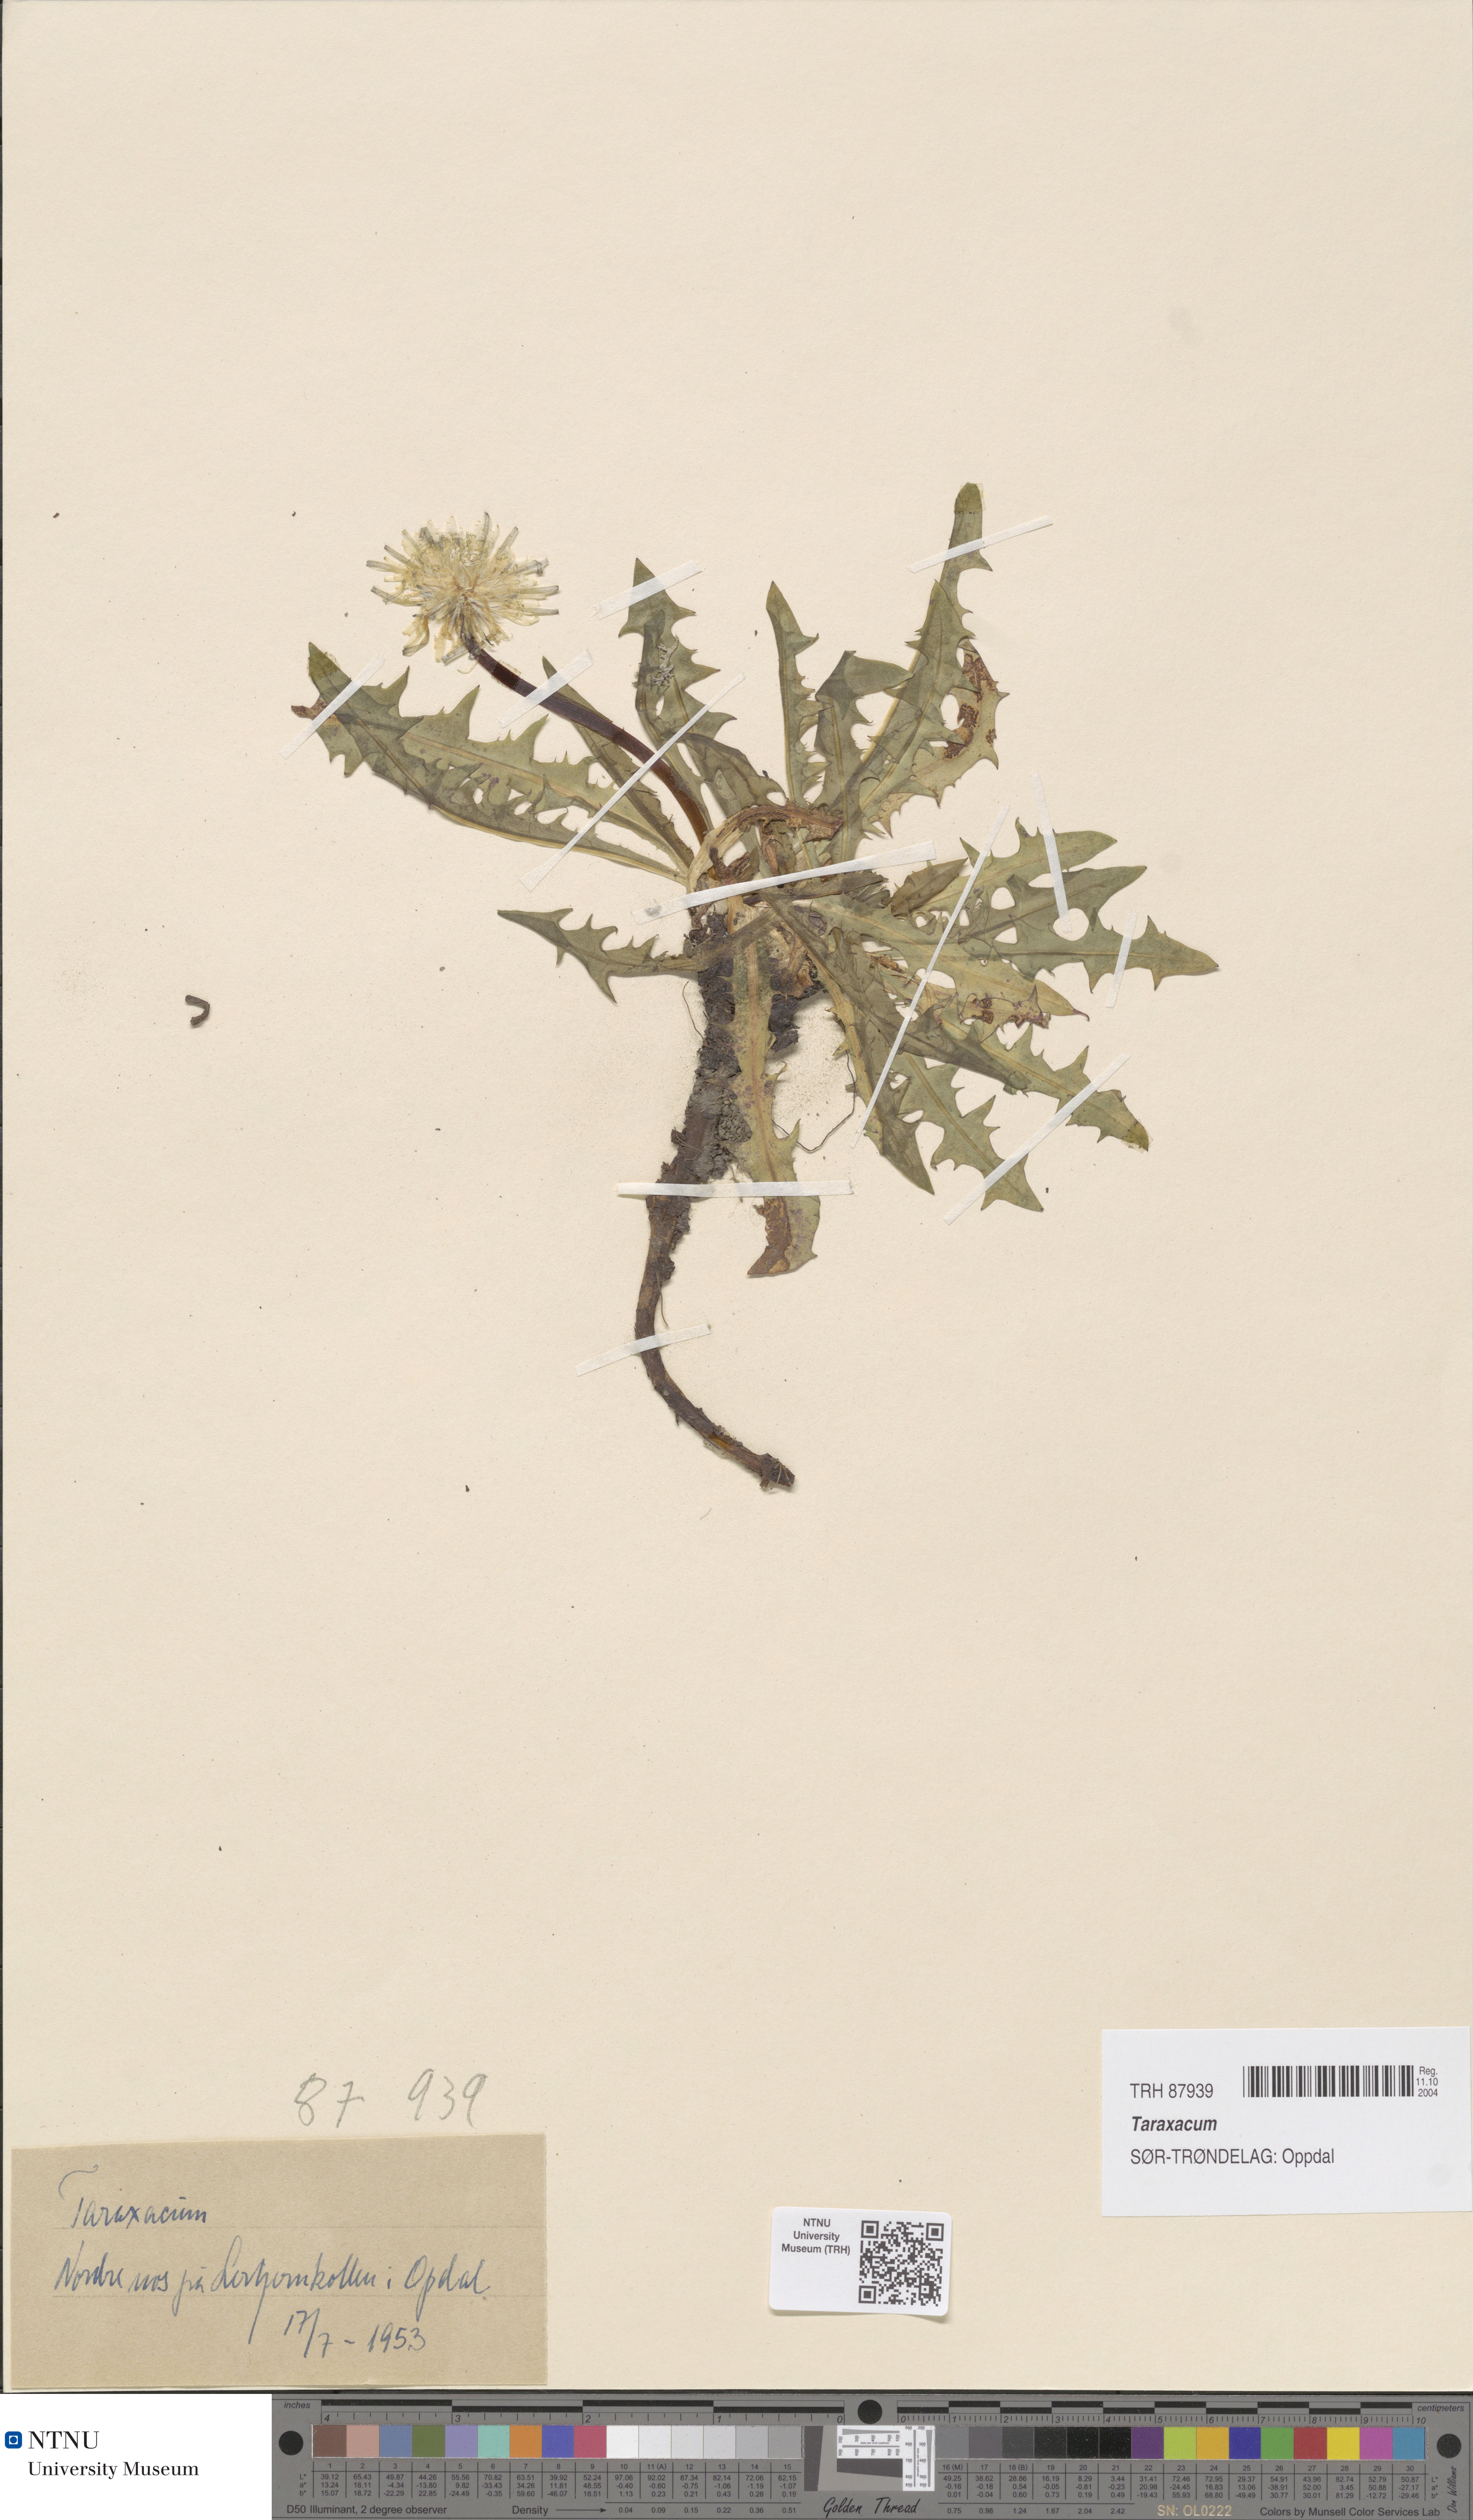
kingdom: Plantae
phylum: Tracheophyta
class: Magnoliopsida
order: Asterales
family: Asteraceae
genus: Taraxacum
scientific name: Taraxacum
